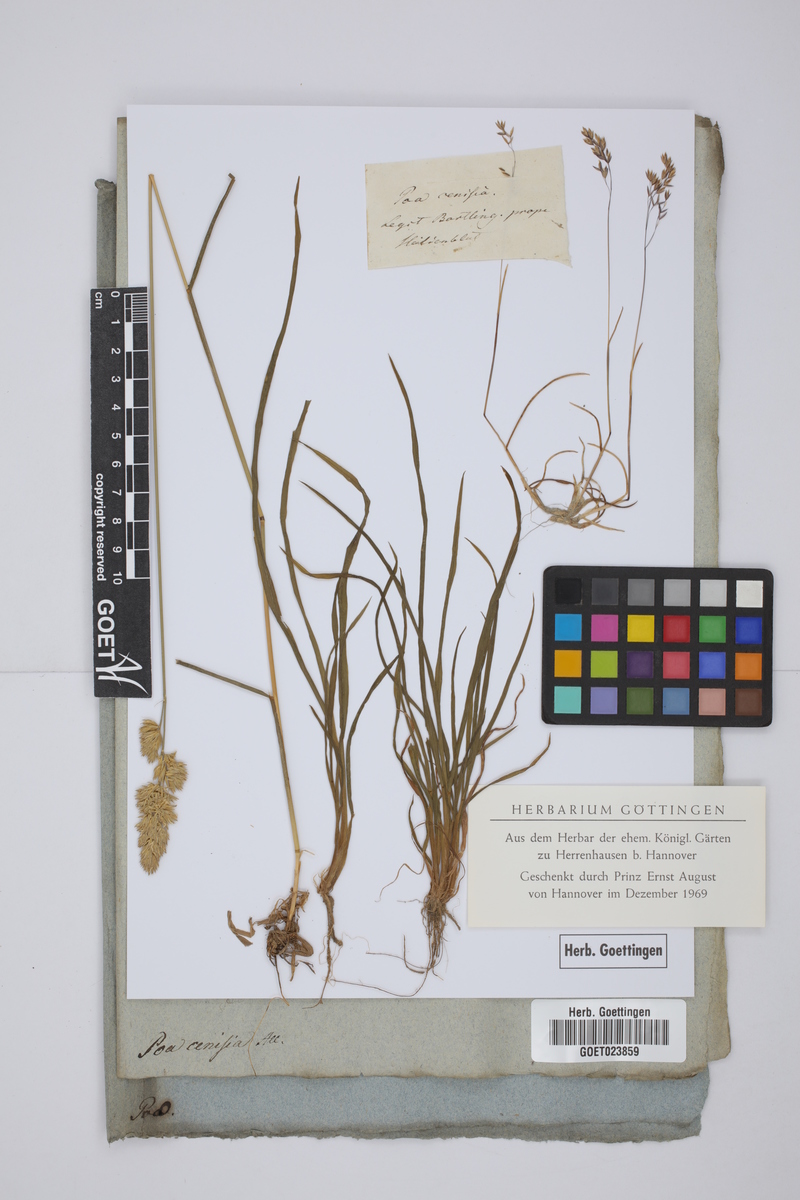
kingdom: Plantae
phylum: Tracheophyta
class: Liliopsida
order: Poales
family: Poaceae
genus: Poa
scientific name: Poa cenisia
